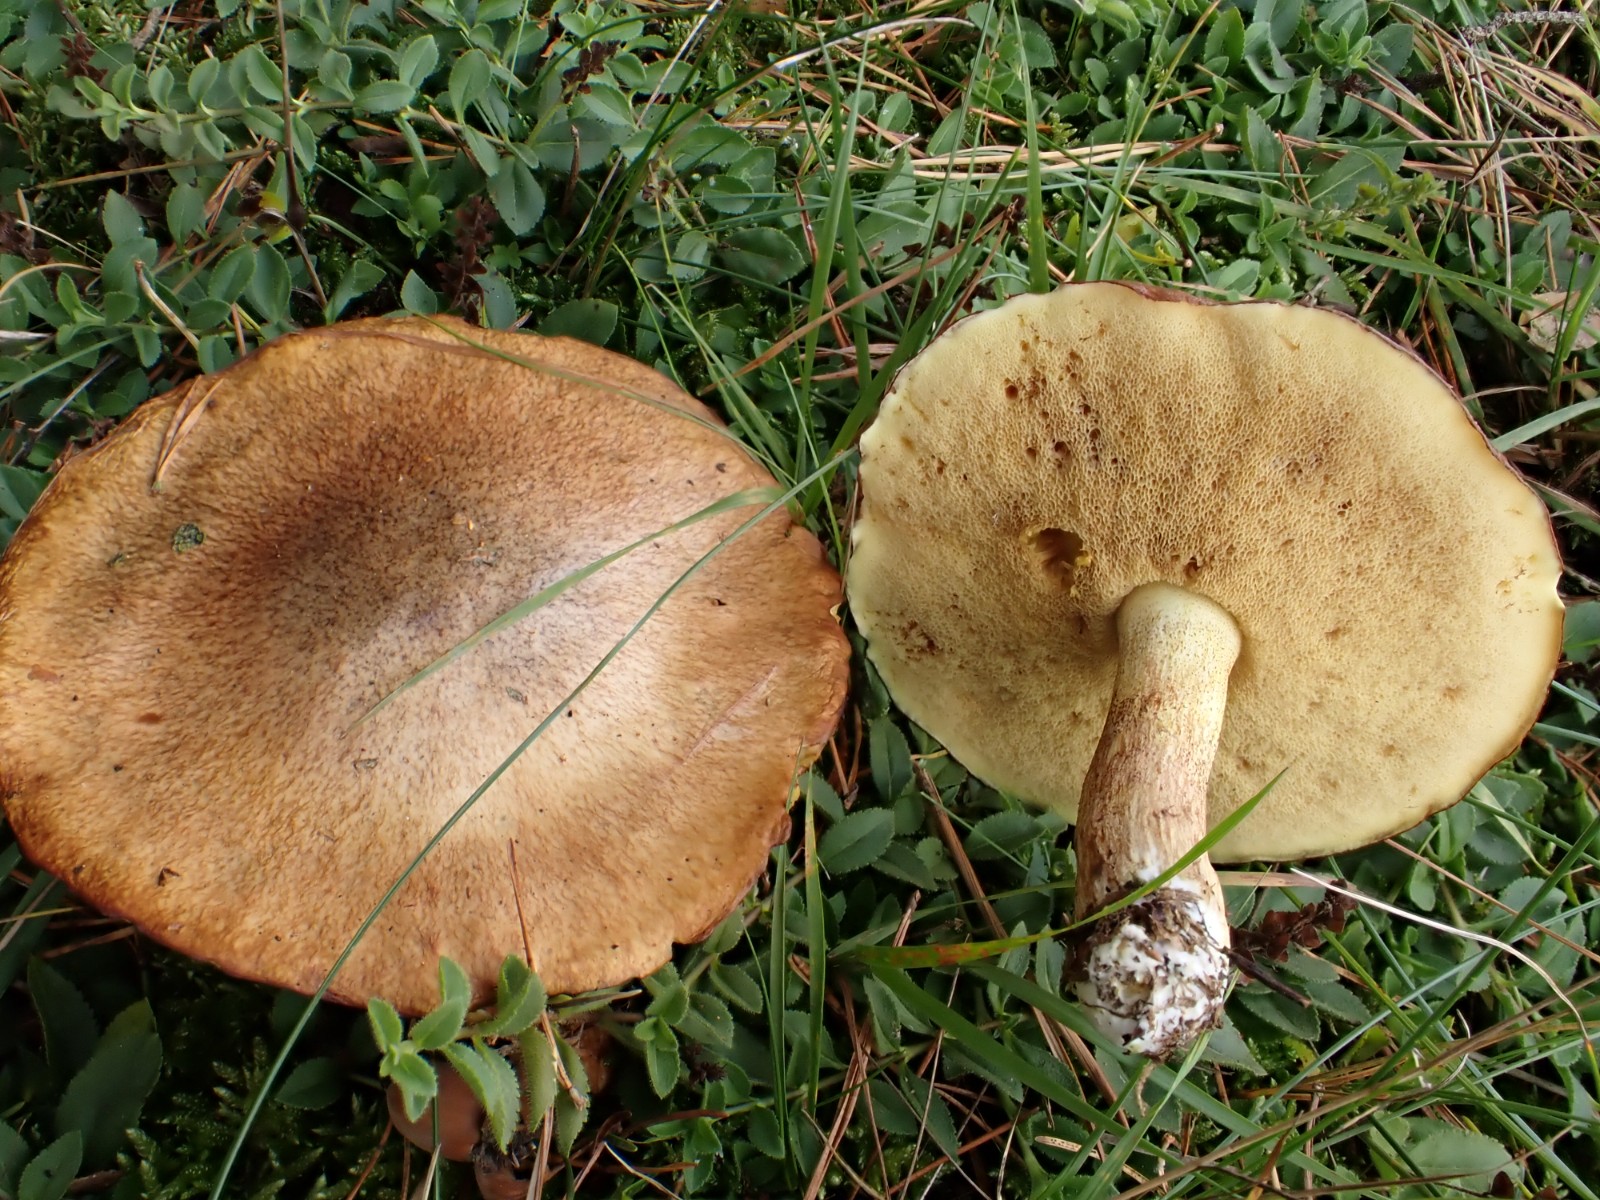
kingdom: Fungi
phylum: Basidiomycota
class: Agaricomycetes
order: Boletales
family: Suillaceae
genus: Suillus
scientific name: Suillus granulatus
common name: kornet slimrørhat
